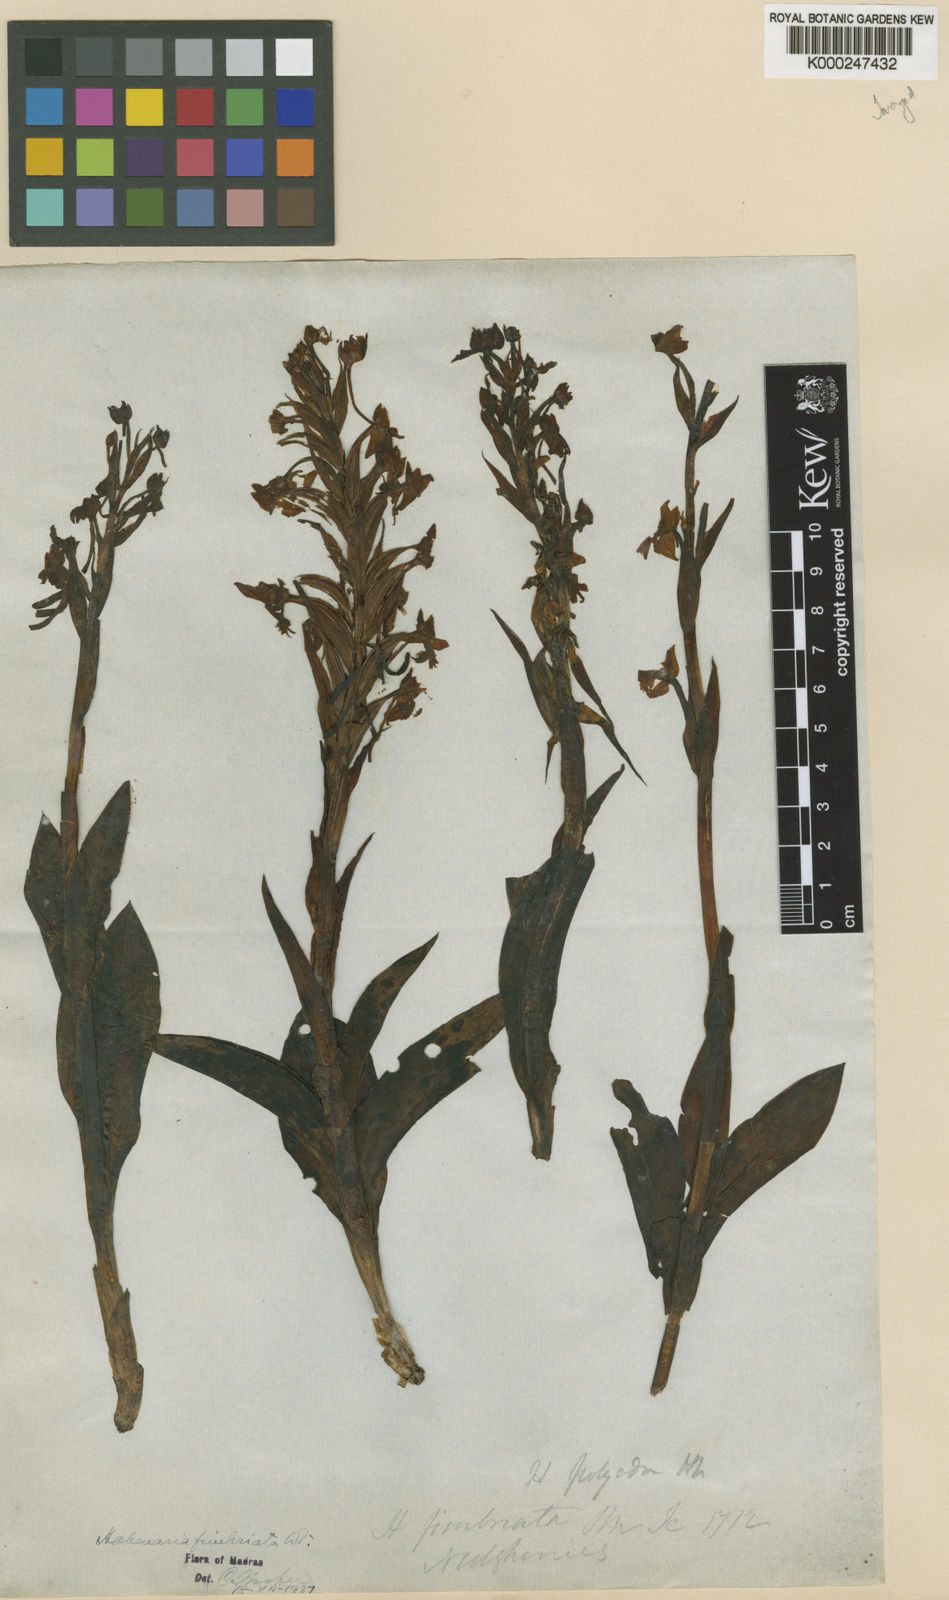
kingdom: Plantae
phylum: Tracheophyta
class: Liliopsida
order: Asparagales
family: Orchidaceae
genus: Habenaria
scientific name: Habenaria
